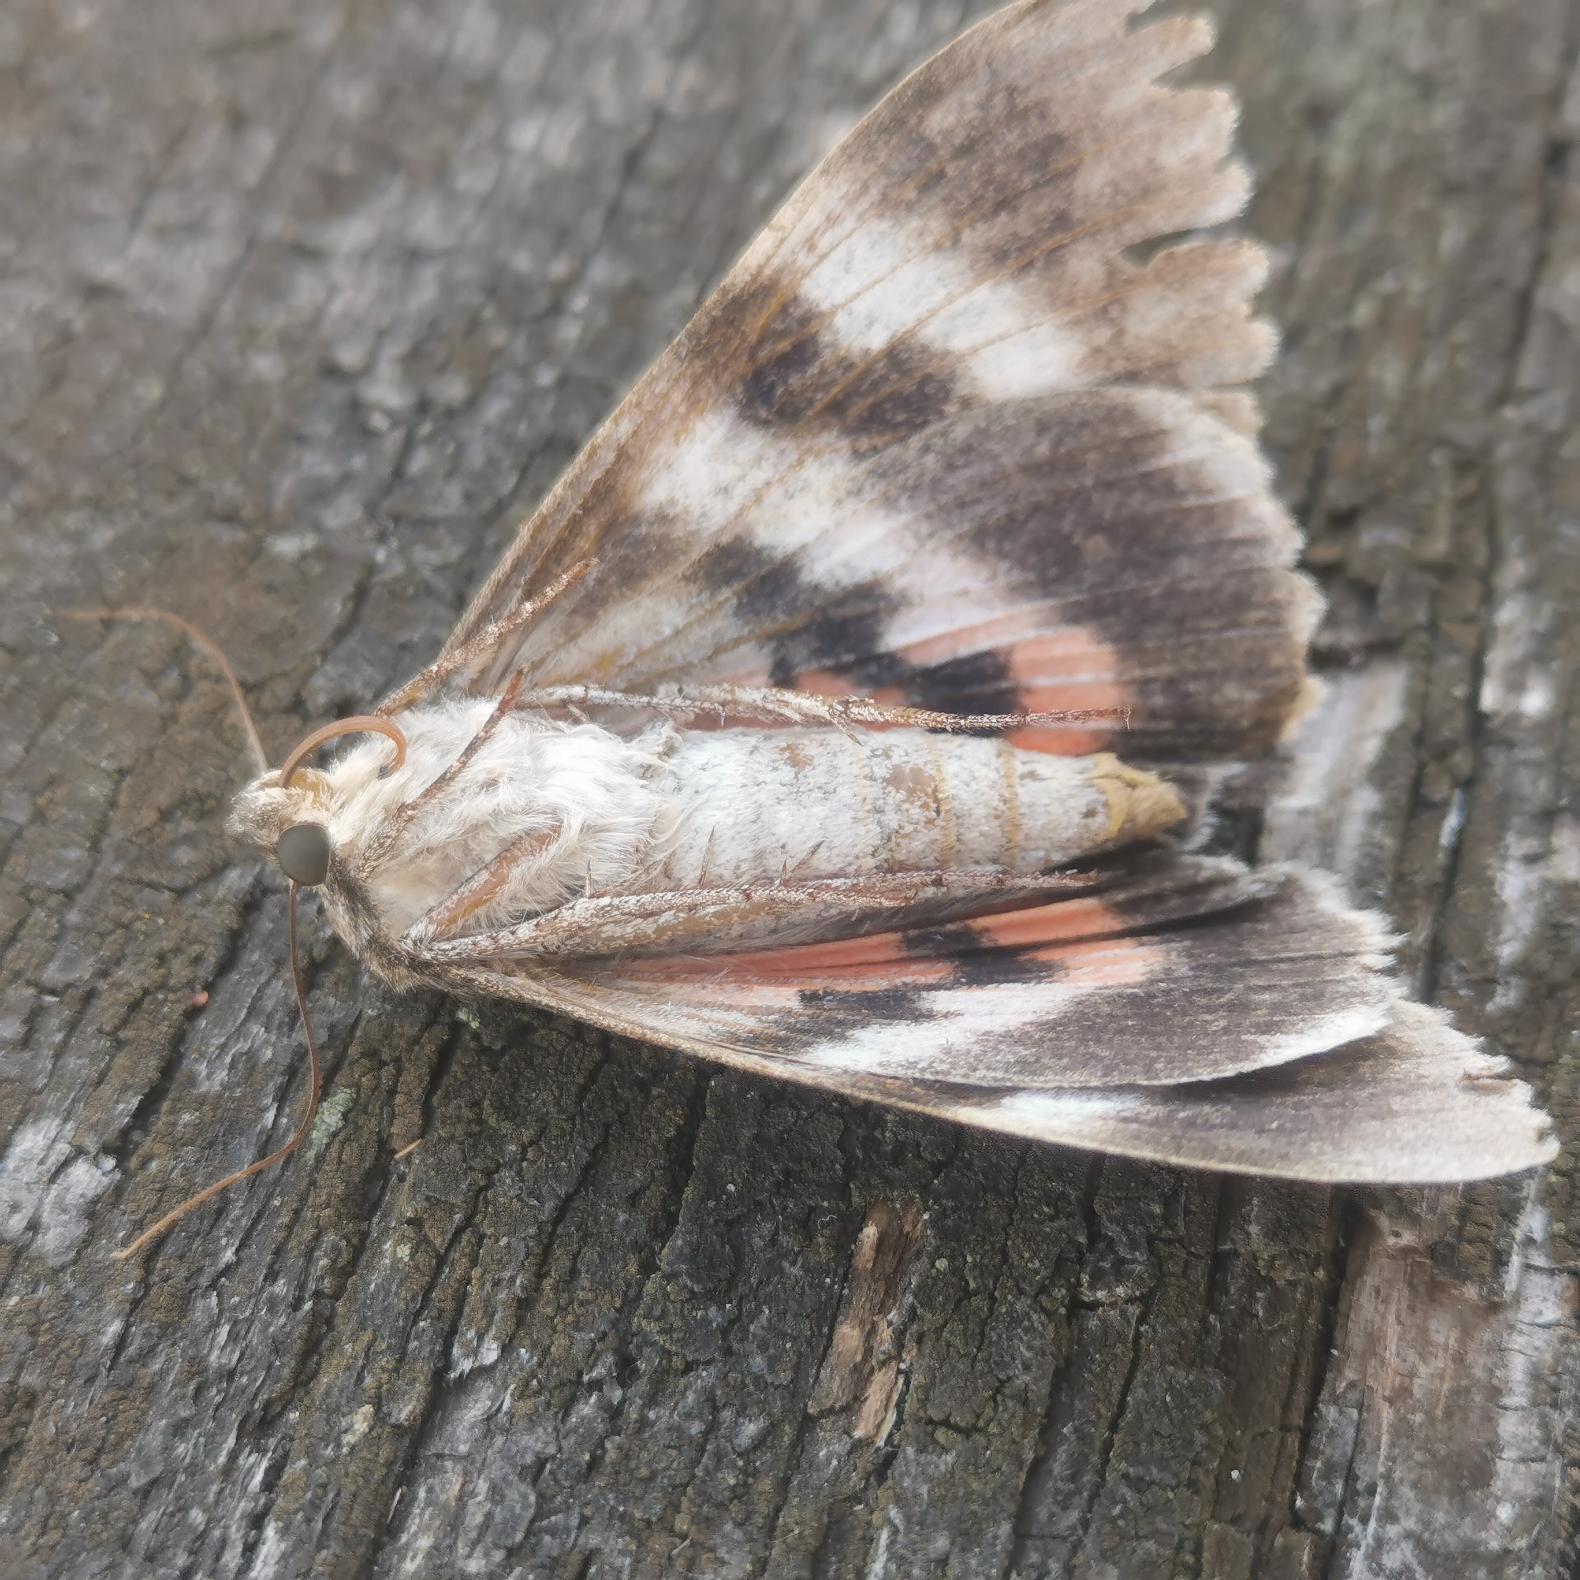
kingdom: Animalia
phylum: Arthropoda
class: Insecta
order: Lepidoptera
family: Erebidae
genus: Catocala
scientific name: Catocala nupta
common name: Rødt ordensbånd
